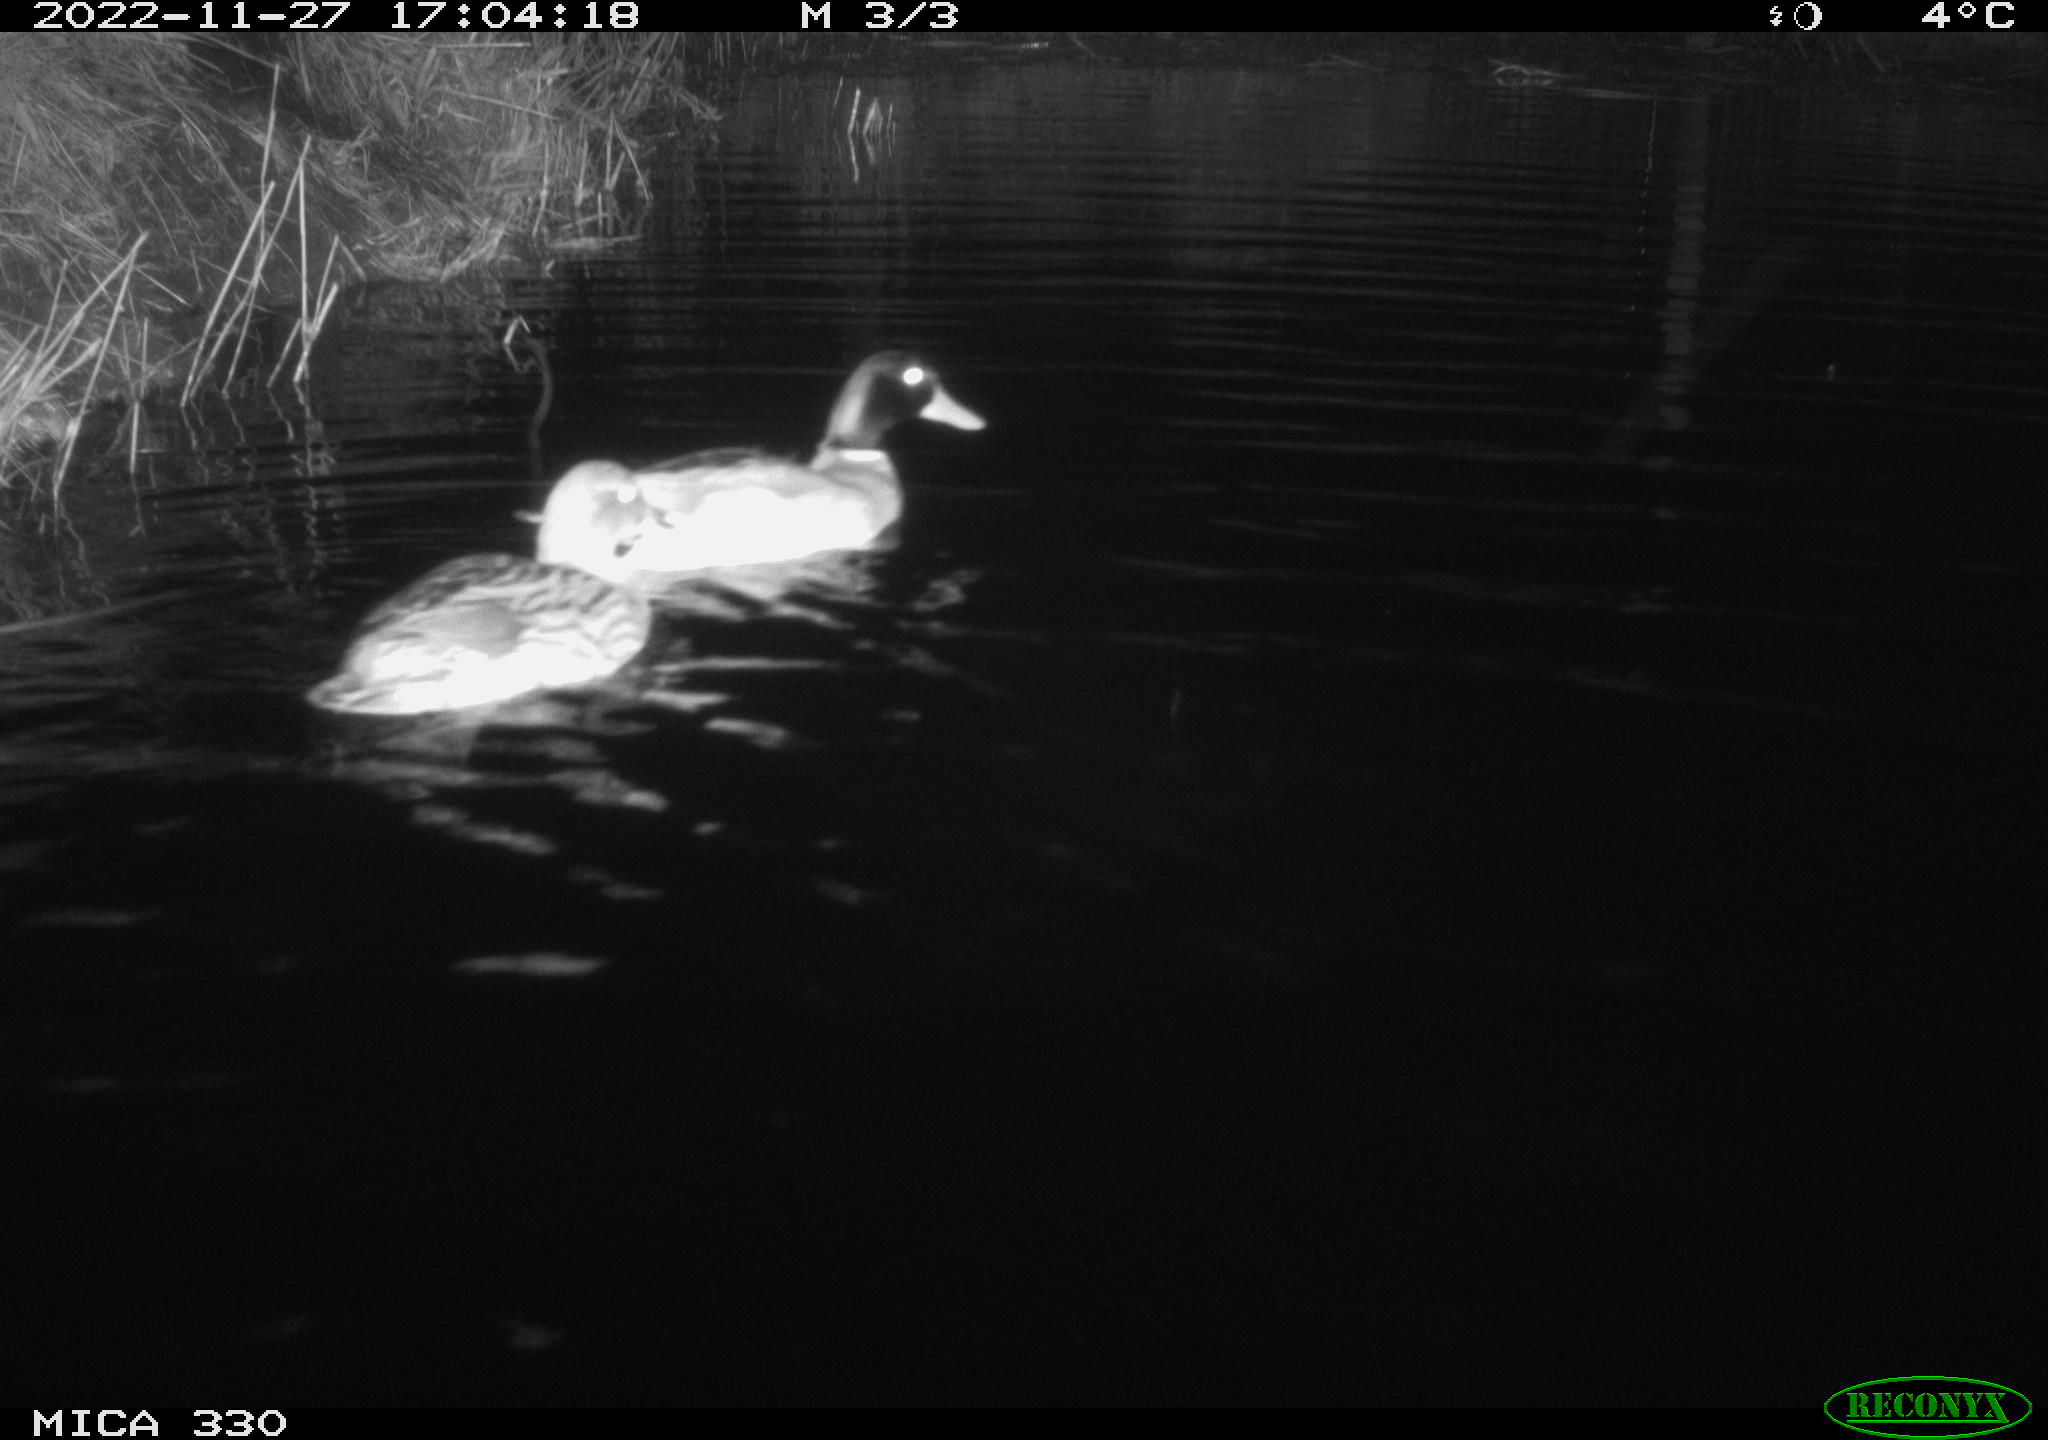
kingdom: Animalia
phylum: Chordata
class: Aves
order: Anseriformes
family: Anatidae
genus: Anas
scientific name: Anas
